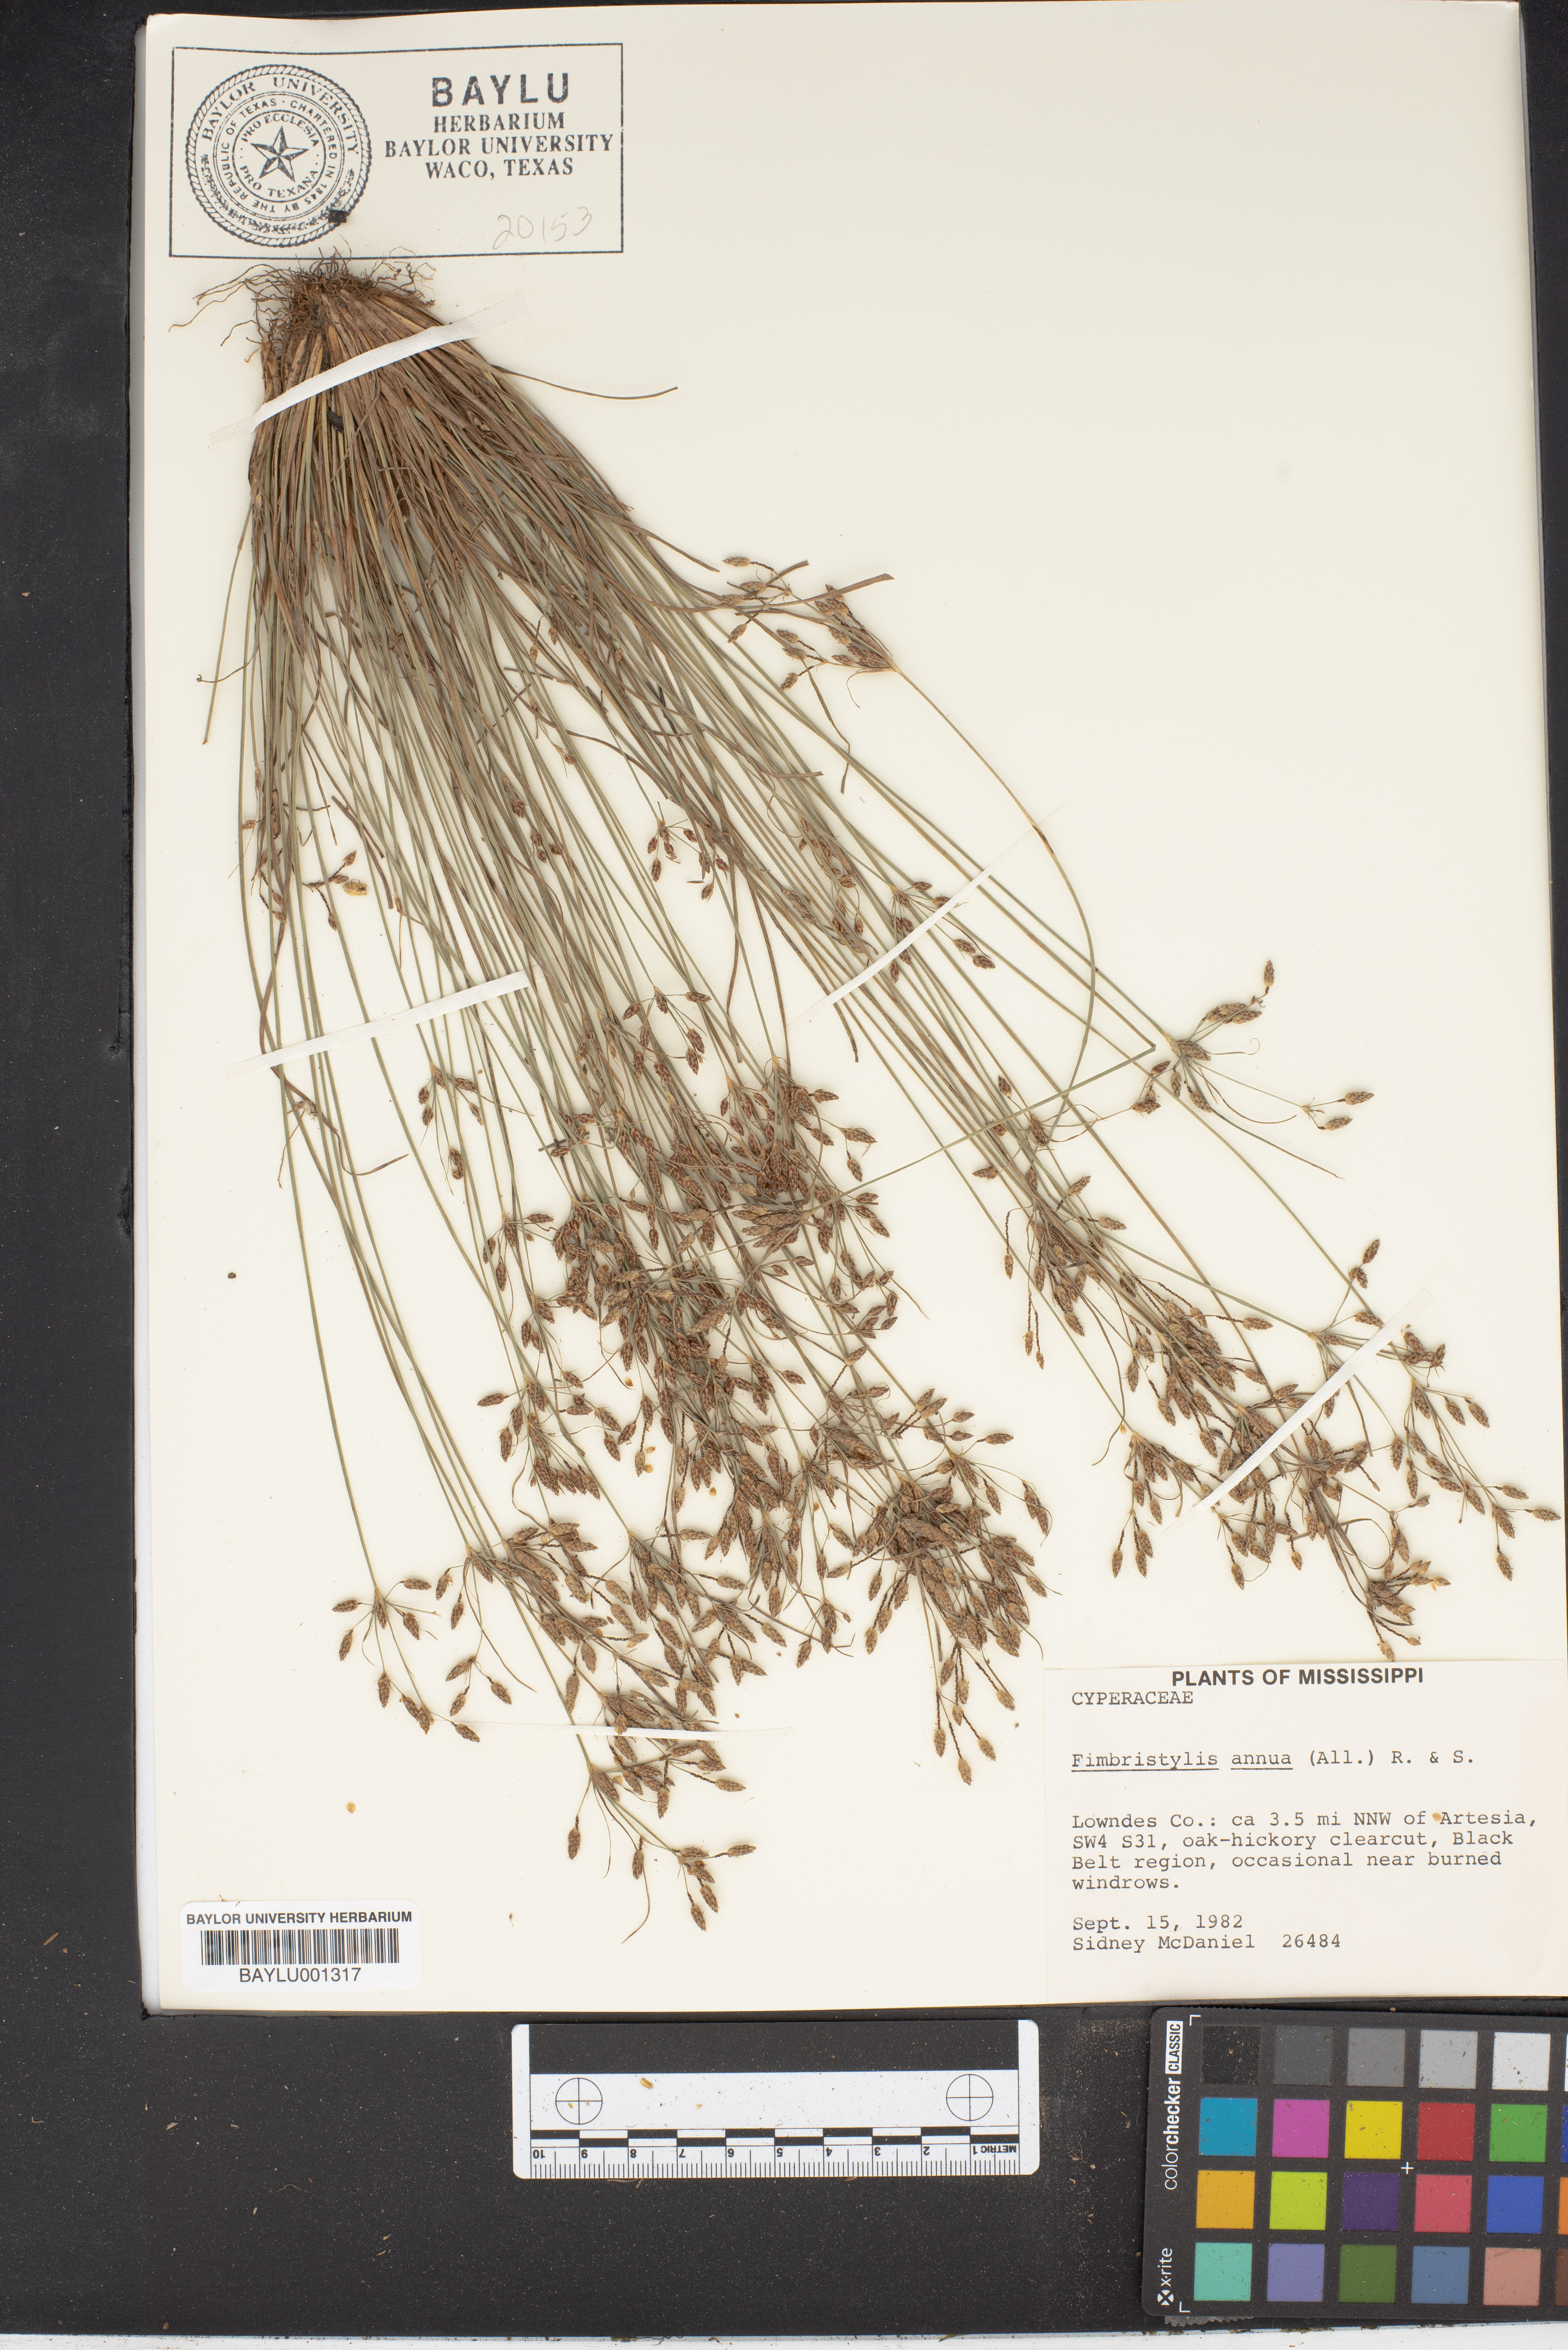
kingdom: Plantae
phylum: Tracheophyta
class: Liliopsida
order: Poales
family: Cyperaceae
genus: Fimbristylis
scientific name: Fimbristylis dichotoma
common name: Forked fimbry
